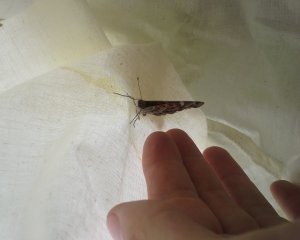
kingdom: Animalia
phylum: Arthropoda
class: Insecta
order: Lepidoptera
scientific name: Lepidoptera
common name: Butterflies
